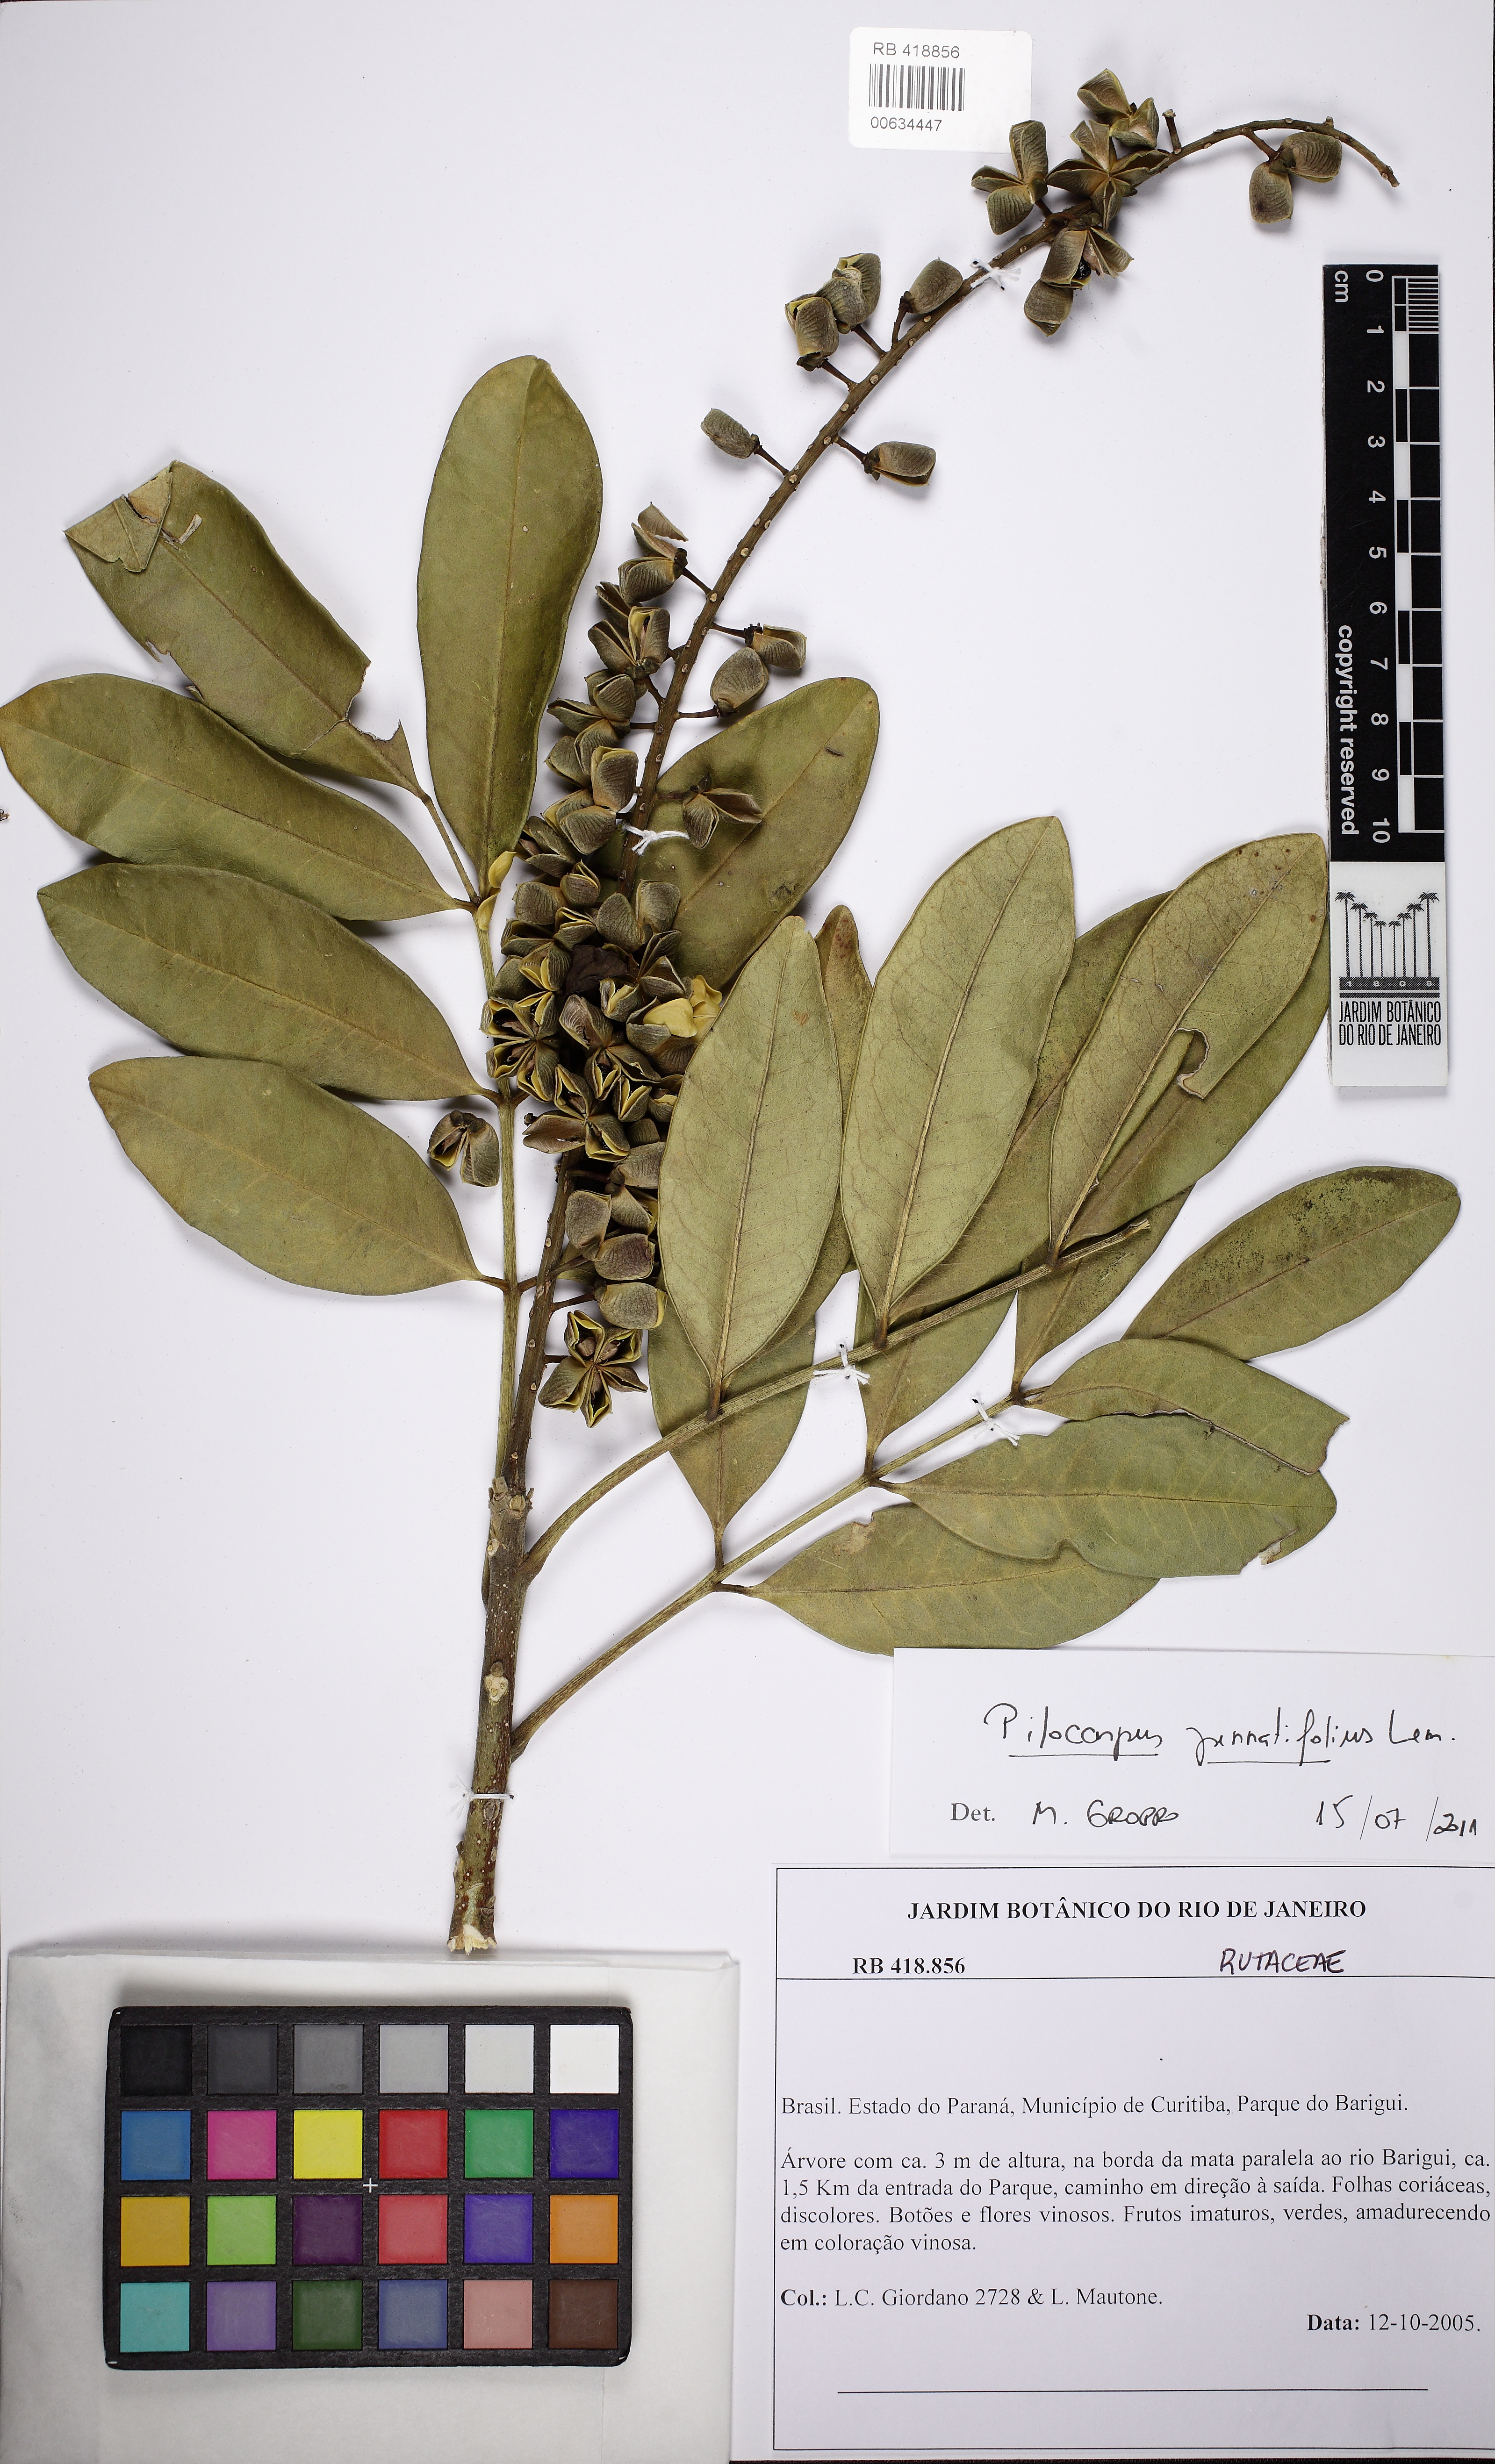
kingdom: Plantae
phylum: Tracheophyta
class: Magnoliopsida
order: Sapindales
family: Rutaceae
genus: Pilocarpus
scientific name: Pilocarpus pennatifolius
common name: Paraguay jaborandi
